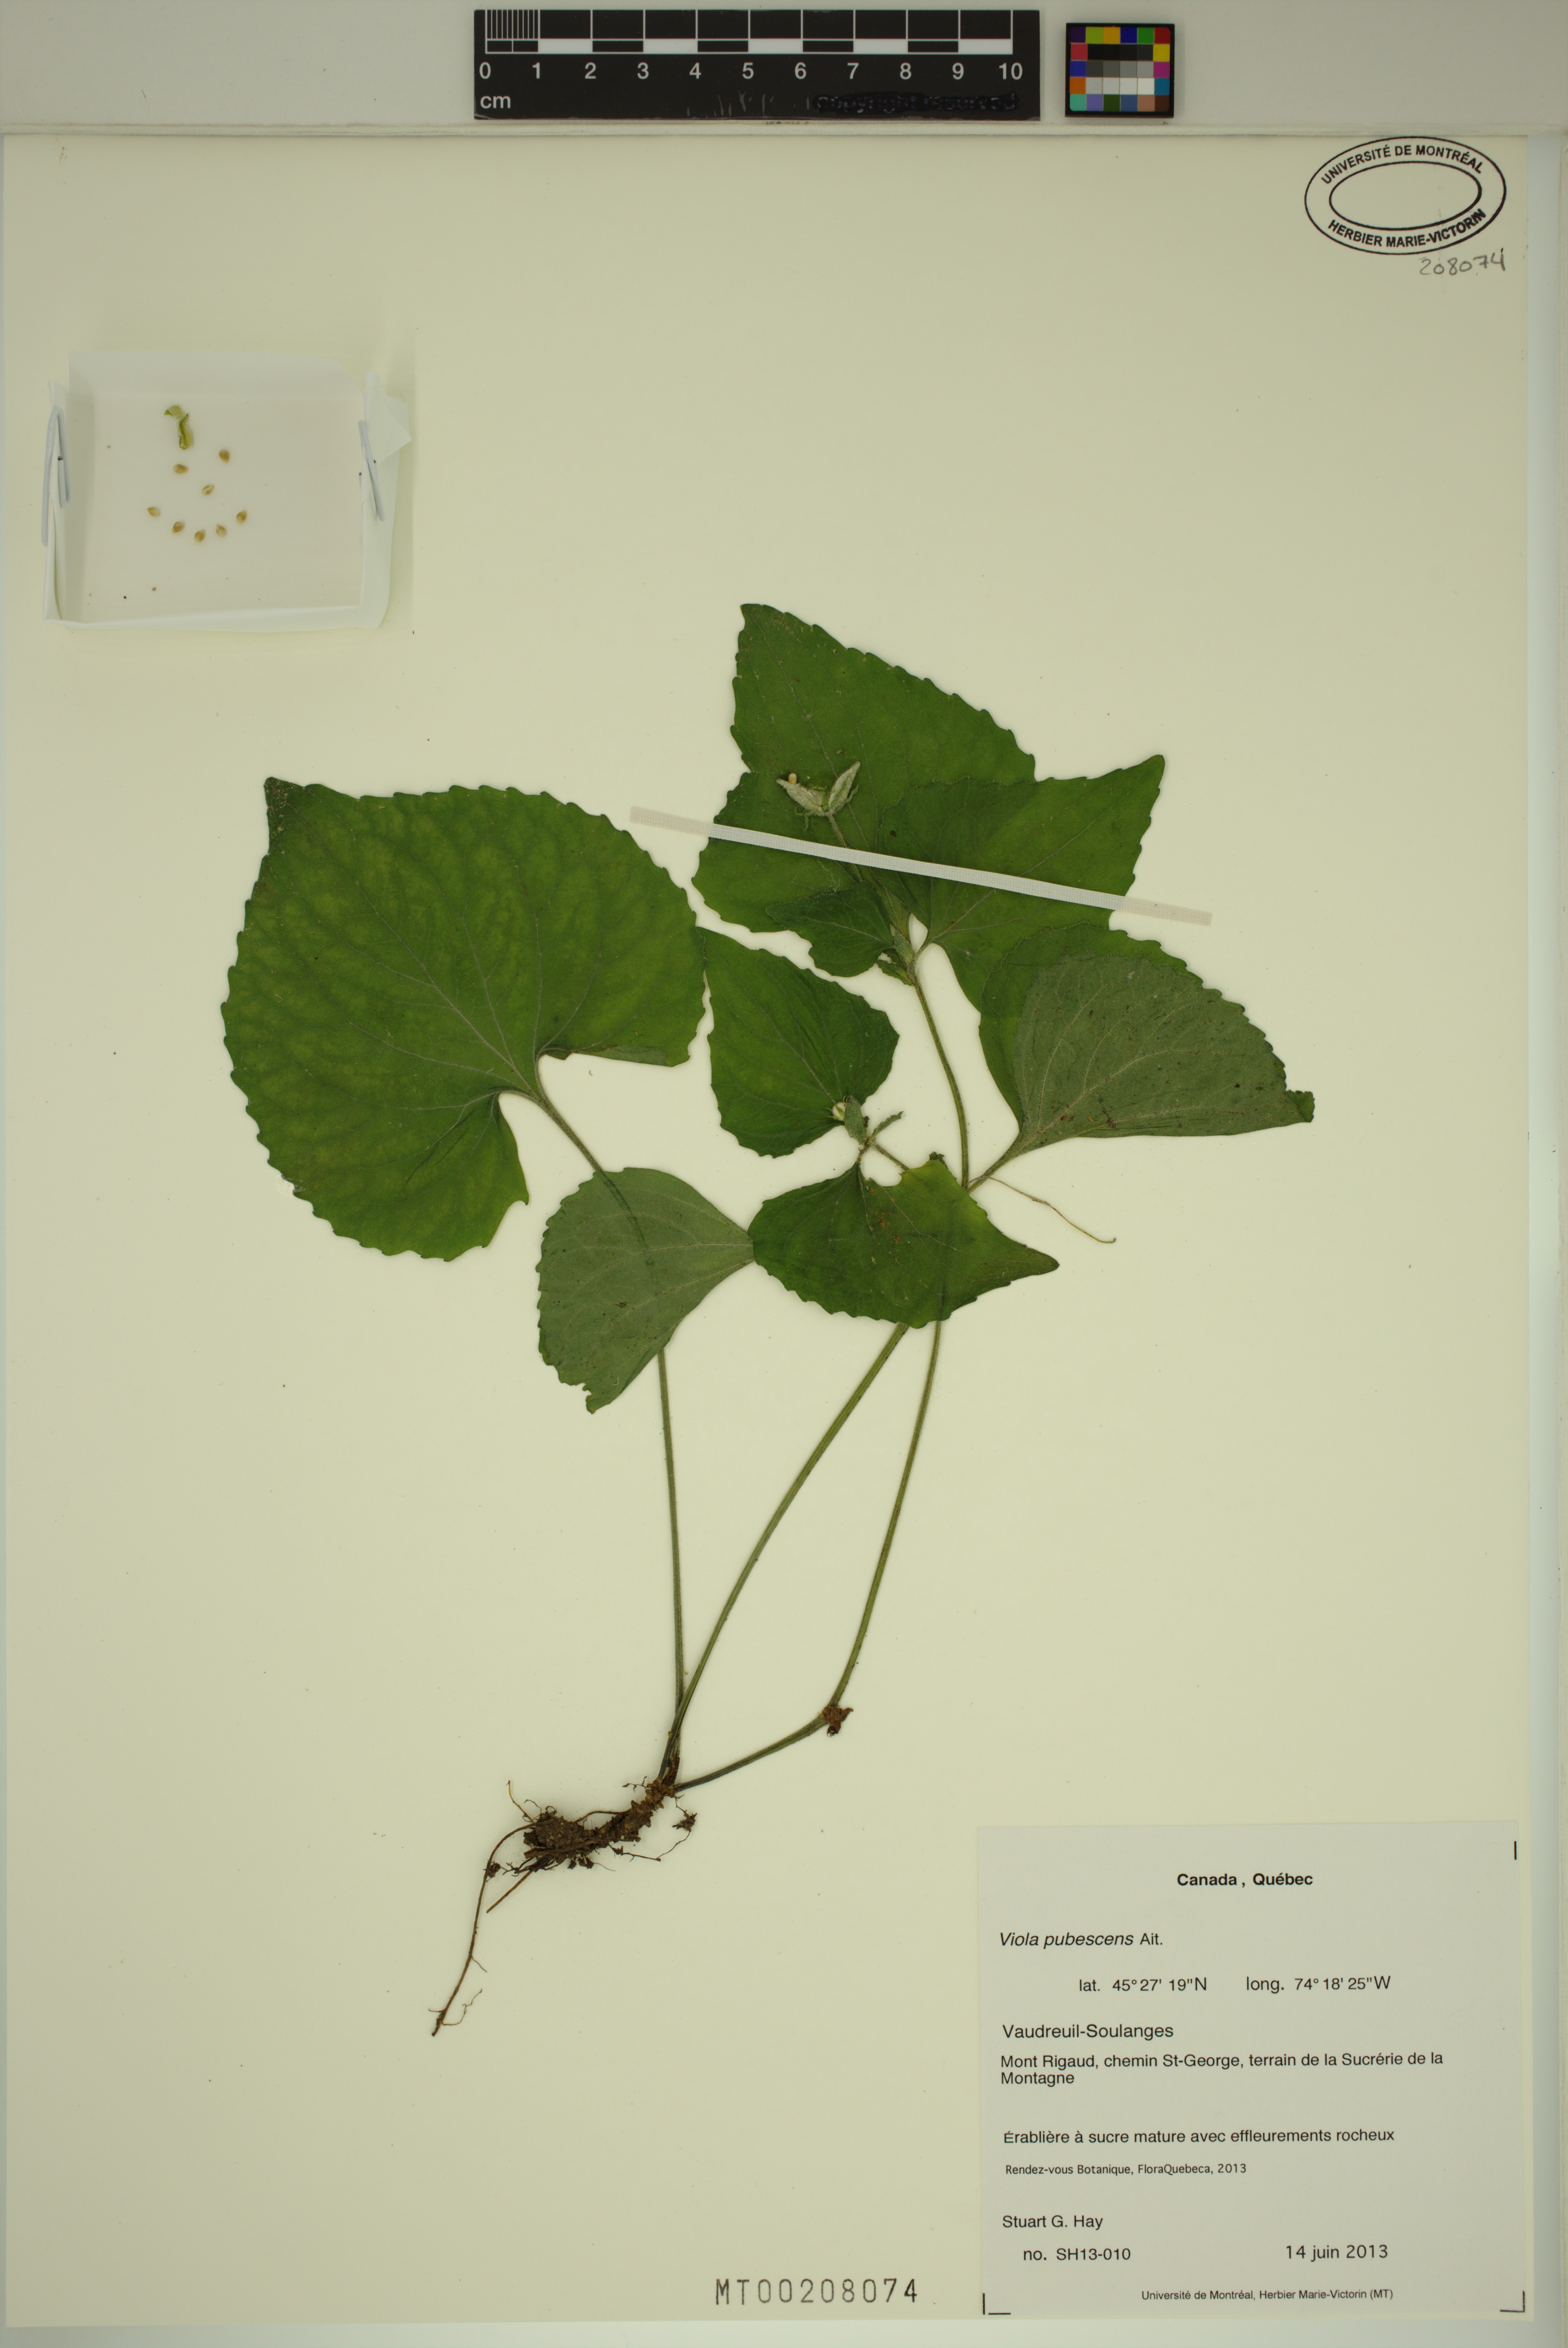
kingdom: Plantae
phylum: Tracheophyta
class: Magnoliopsida
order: Malpighiales
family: Violaceae
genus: Viola
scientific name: Viola pubescens
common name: Yellow forest violet
